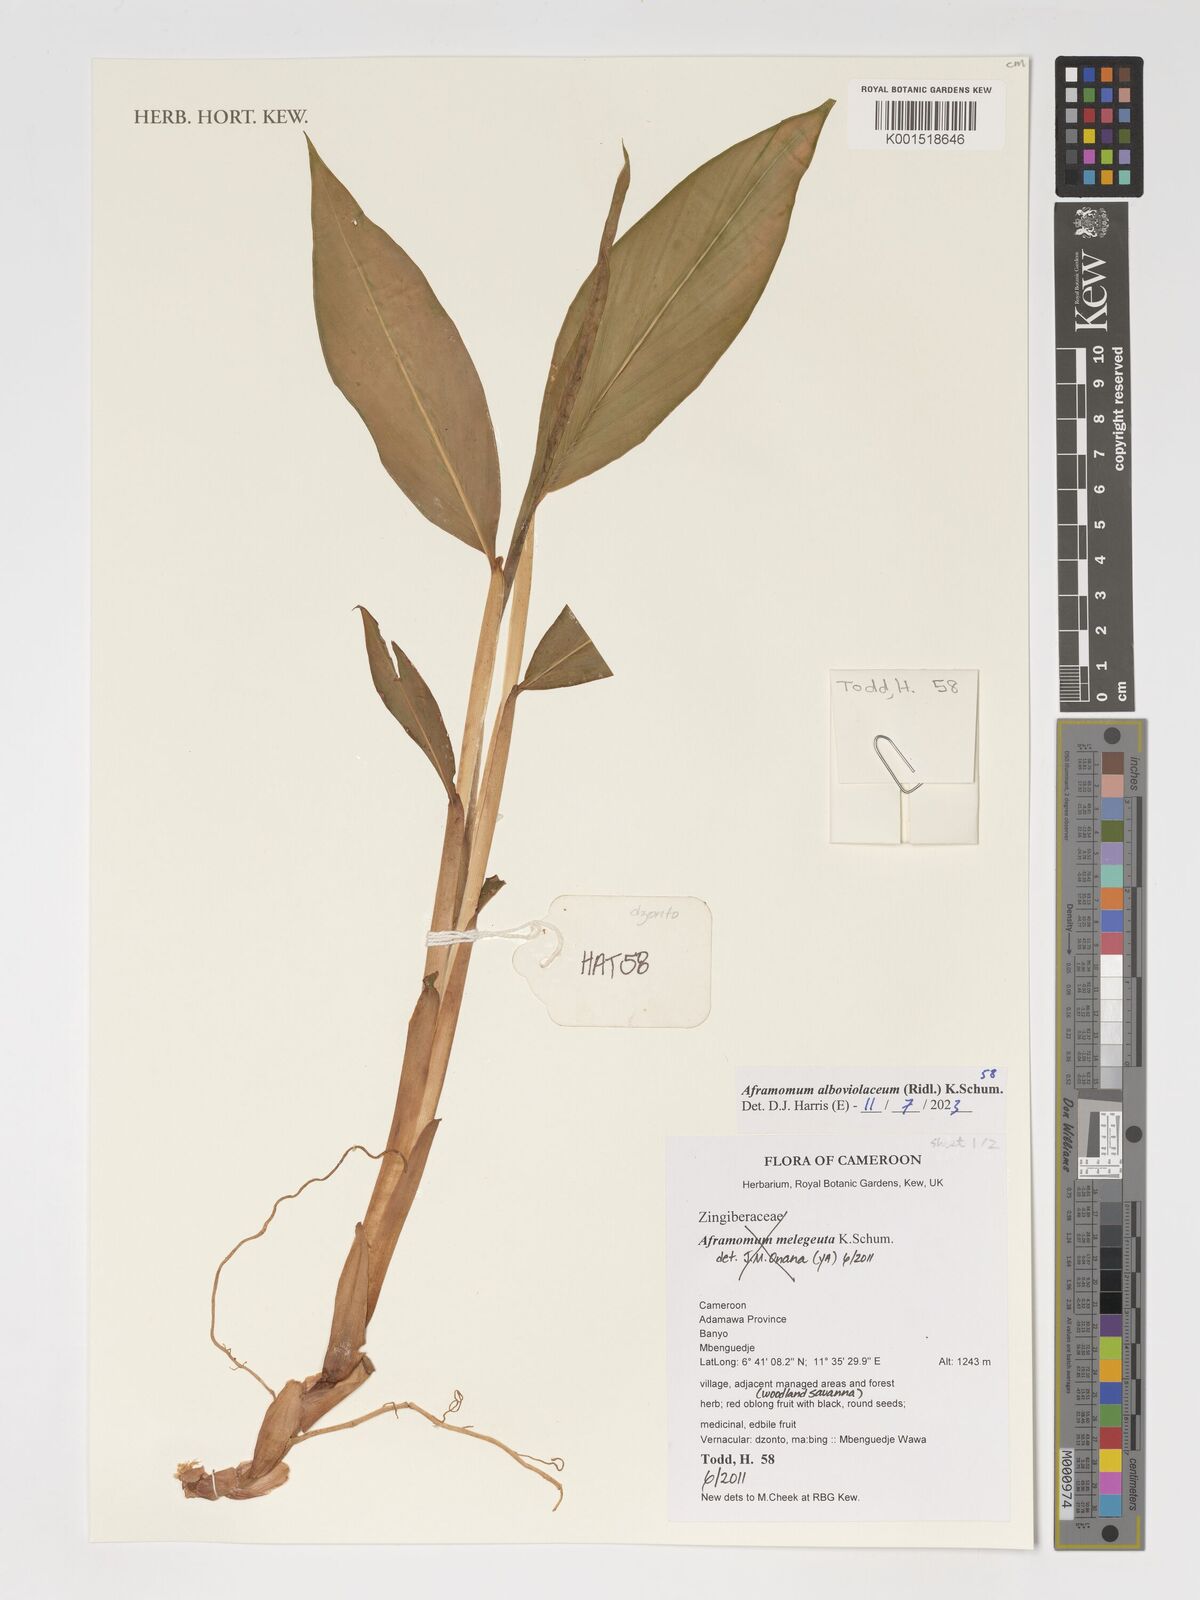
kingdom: Plantae
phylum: Tracheophyta
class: Liliopsida
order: Zingiberales
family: Zingiberaceae
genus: Aframomum
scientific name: Aframomum alboviolaceum
